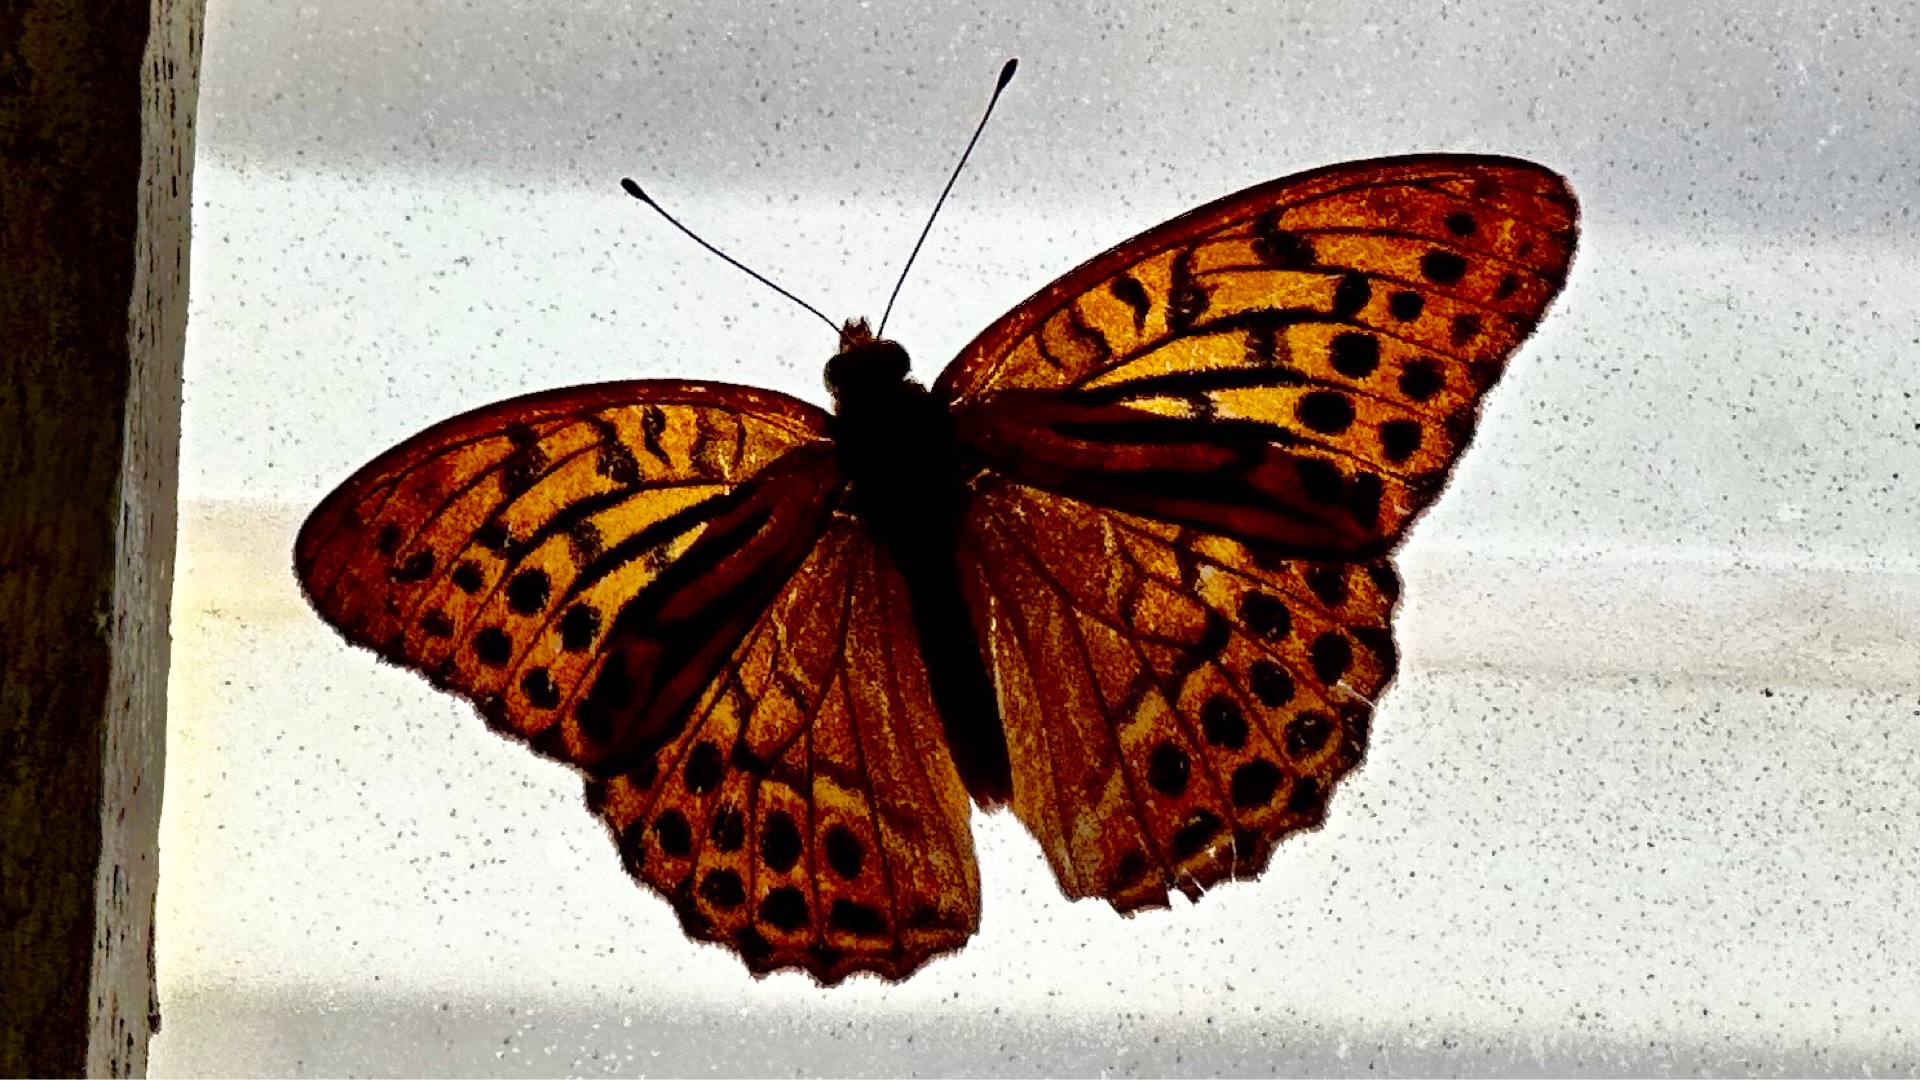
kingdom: Animalia
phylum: Arthropoda
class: Insecta
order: Lepidoptera
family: Nymphalidae
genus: Argynnis
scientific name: Argynnis paphia
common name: Kejserkåbe
